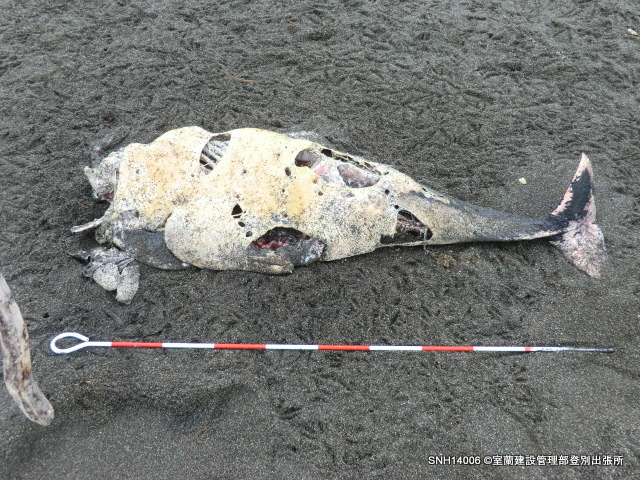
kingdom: Animalia
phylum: Chordata
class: Mammalia
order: Cetacea
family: Phocoenidae
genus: Phocoena
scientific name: Phocoena phocoena
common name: Harbour porpoise
